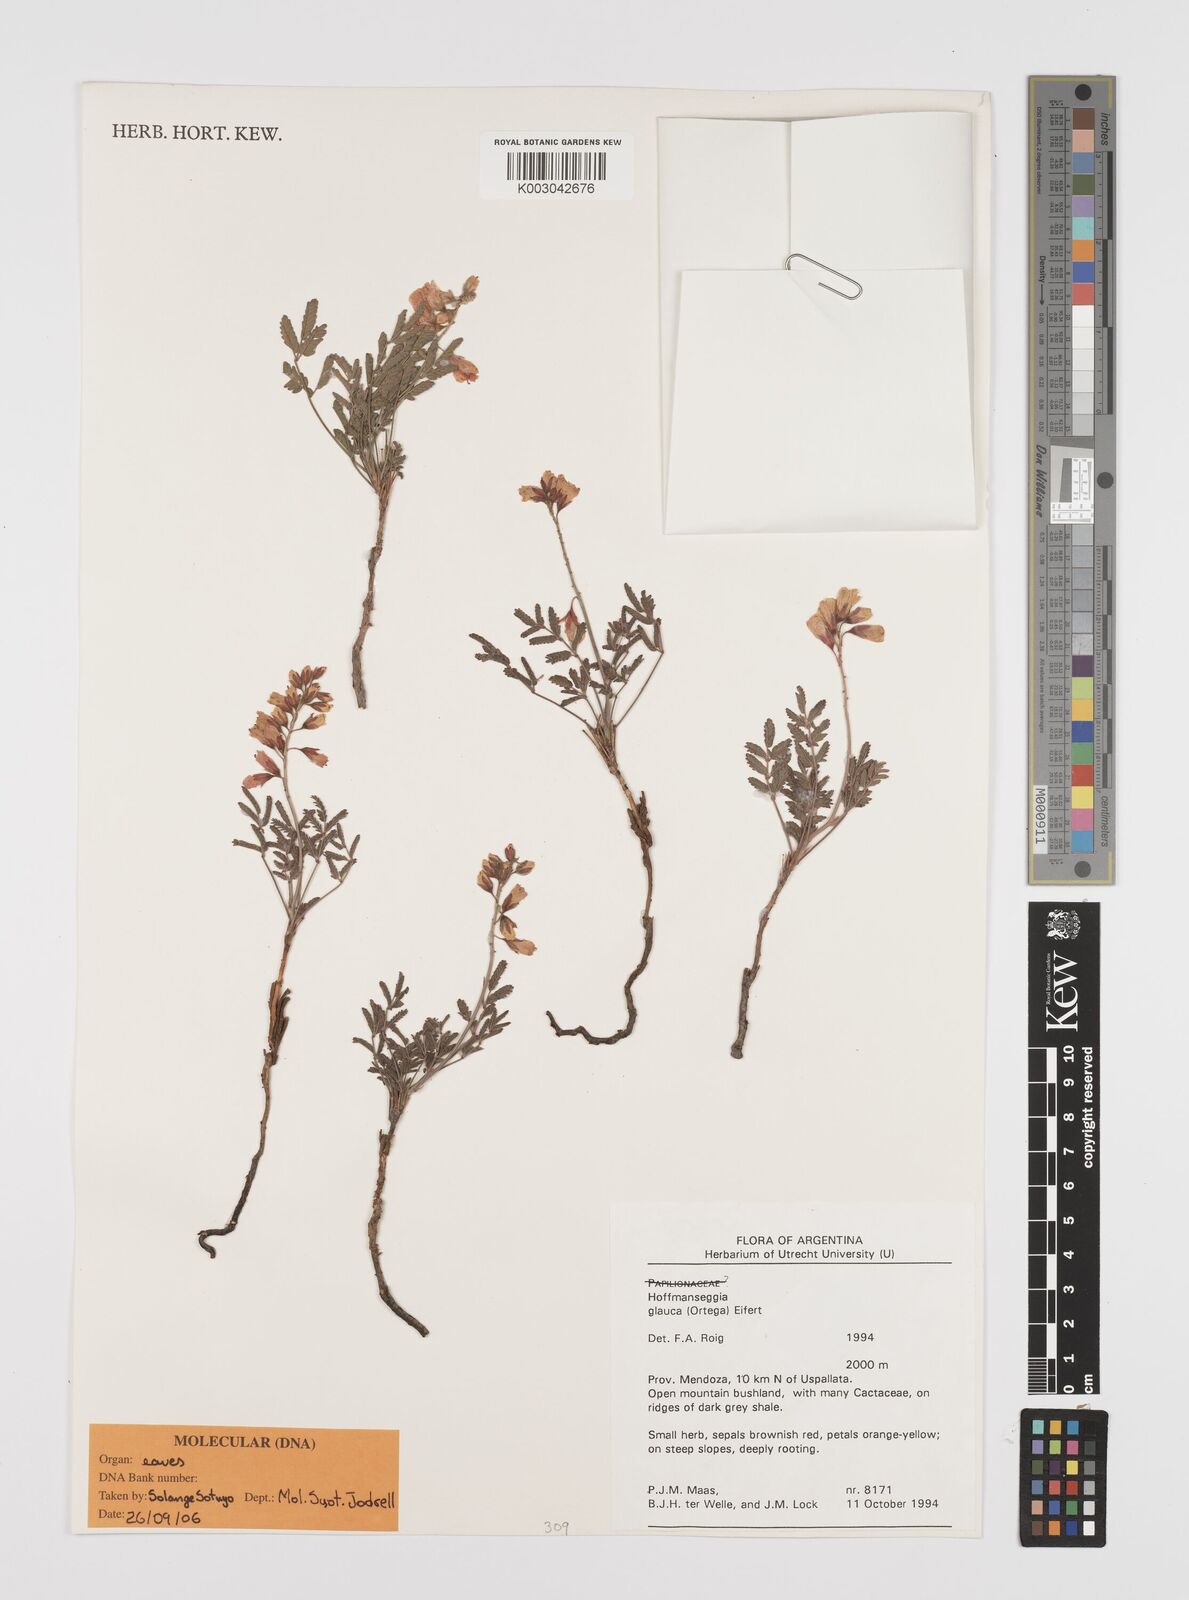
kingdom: Plantae
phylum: Tracheophyta
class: Magnoliopsida
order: Fabales
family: Fabaceae
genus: Hoffmannseggia
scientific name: Hoffmannseggia glauca
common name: Pignut
